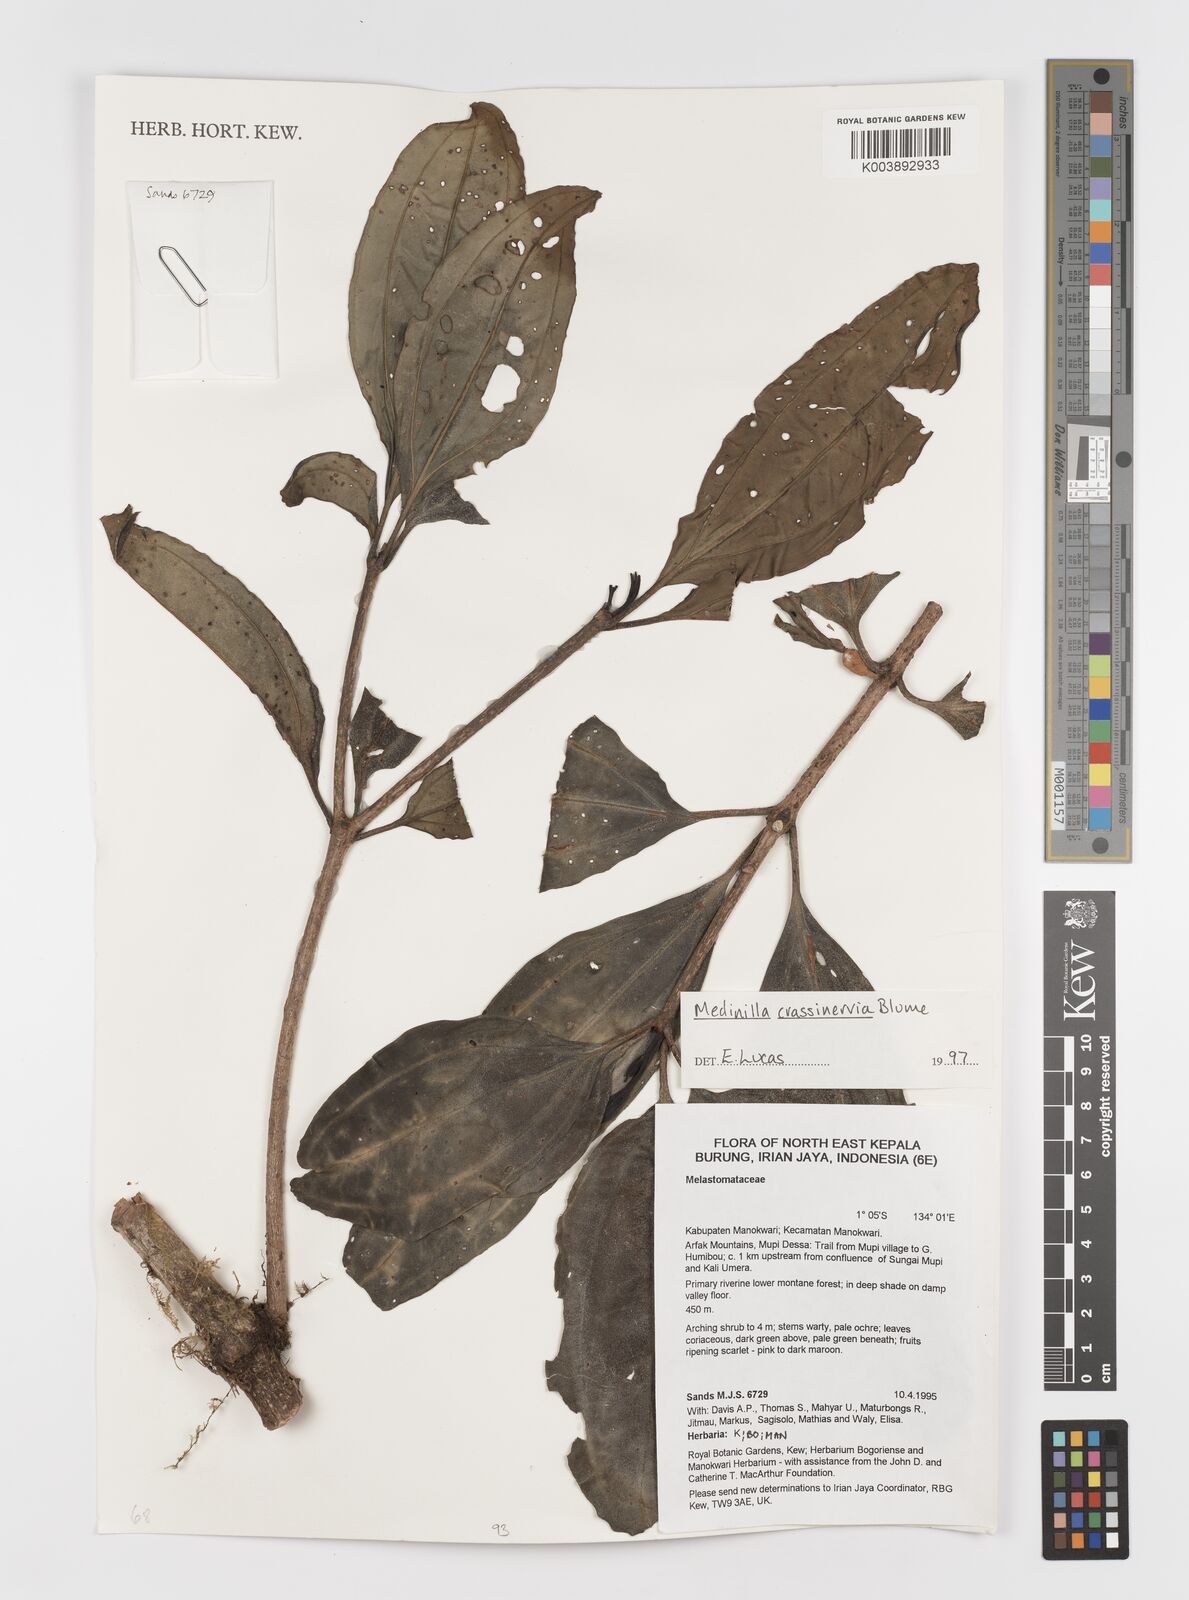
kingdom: Plantae
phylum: Tracheophyta
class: Magnoliopsida
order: Myrtales
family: Melastomataceae
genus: Medinilla
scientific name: Medinilla crassinervia
